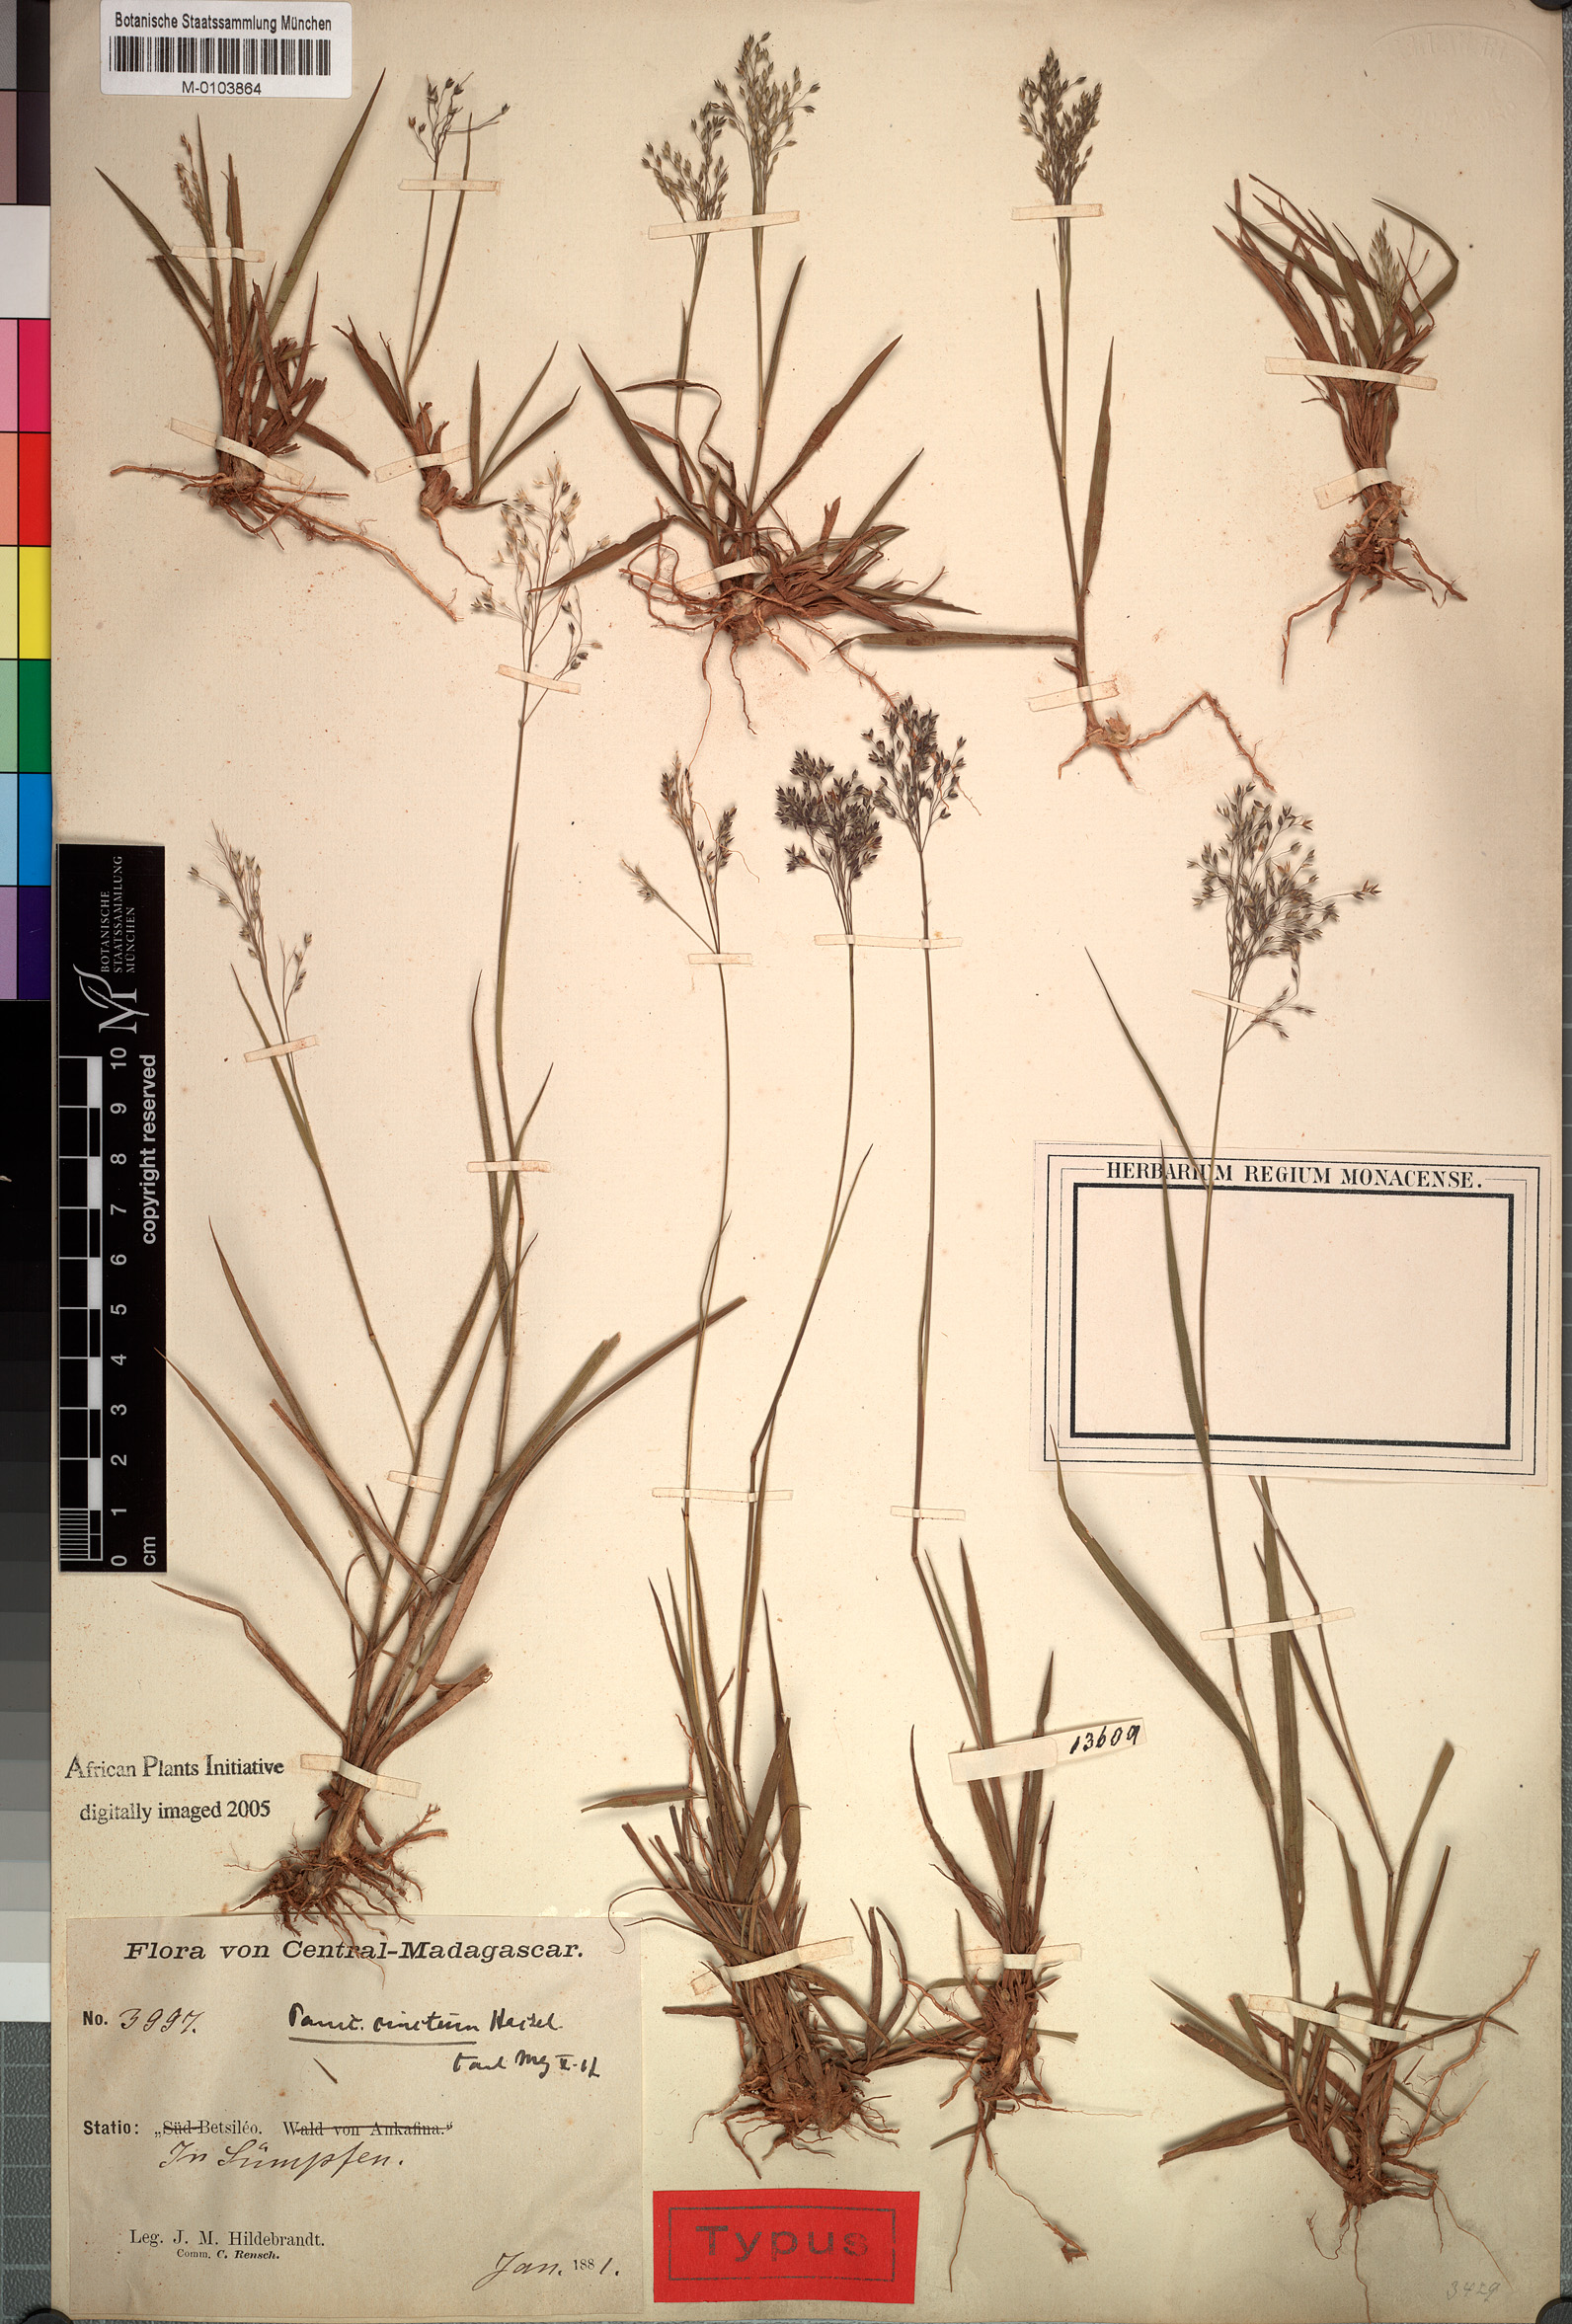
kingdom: Plantae
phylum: Tracheophyta
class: Liliopsida
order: Poales
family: Poaceae
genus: Panicum
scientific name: Panicum cinctum
